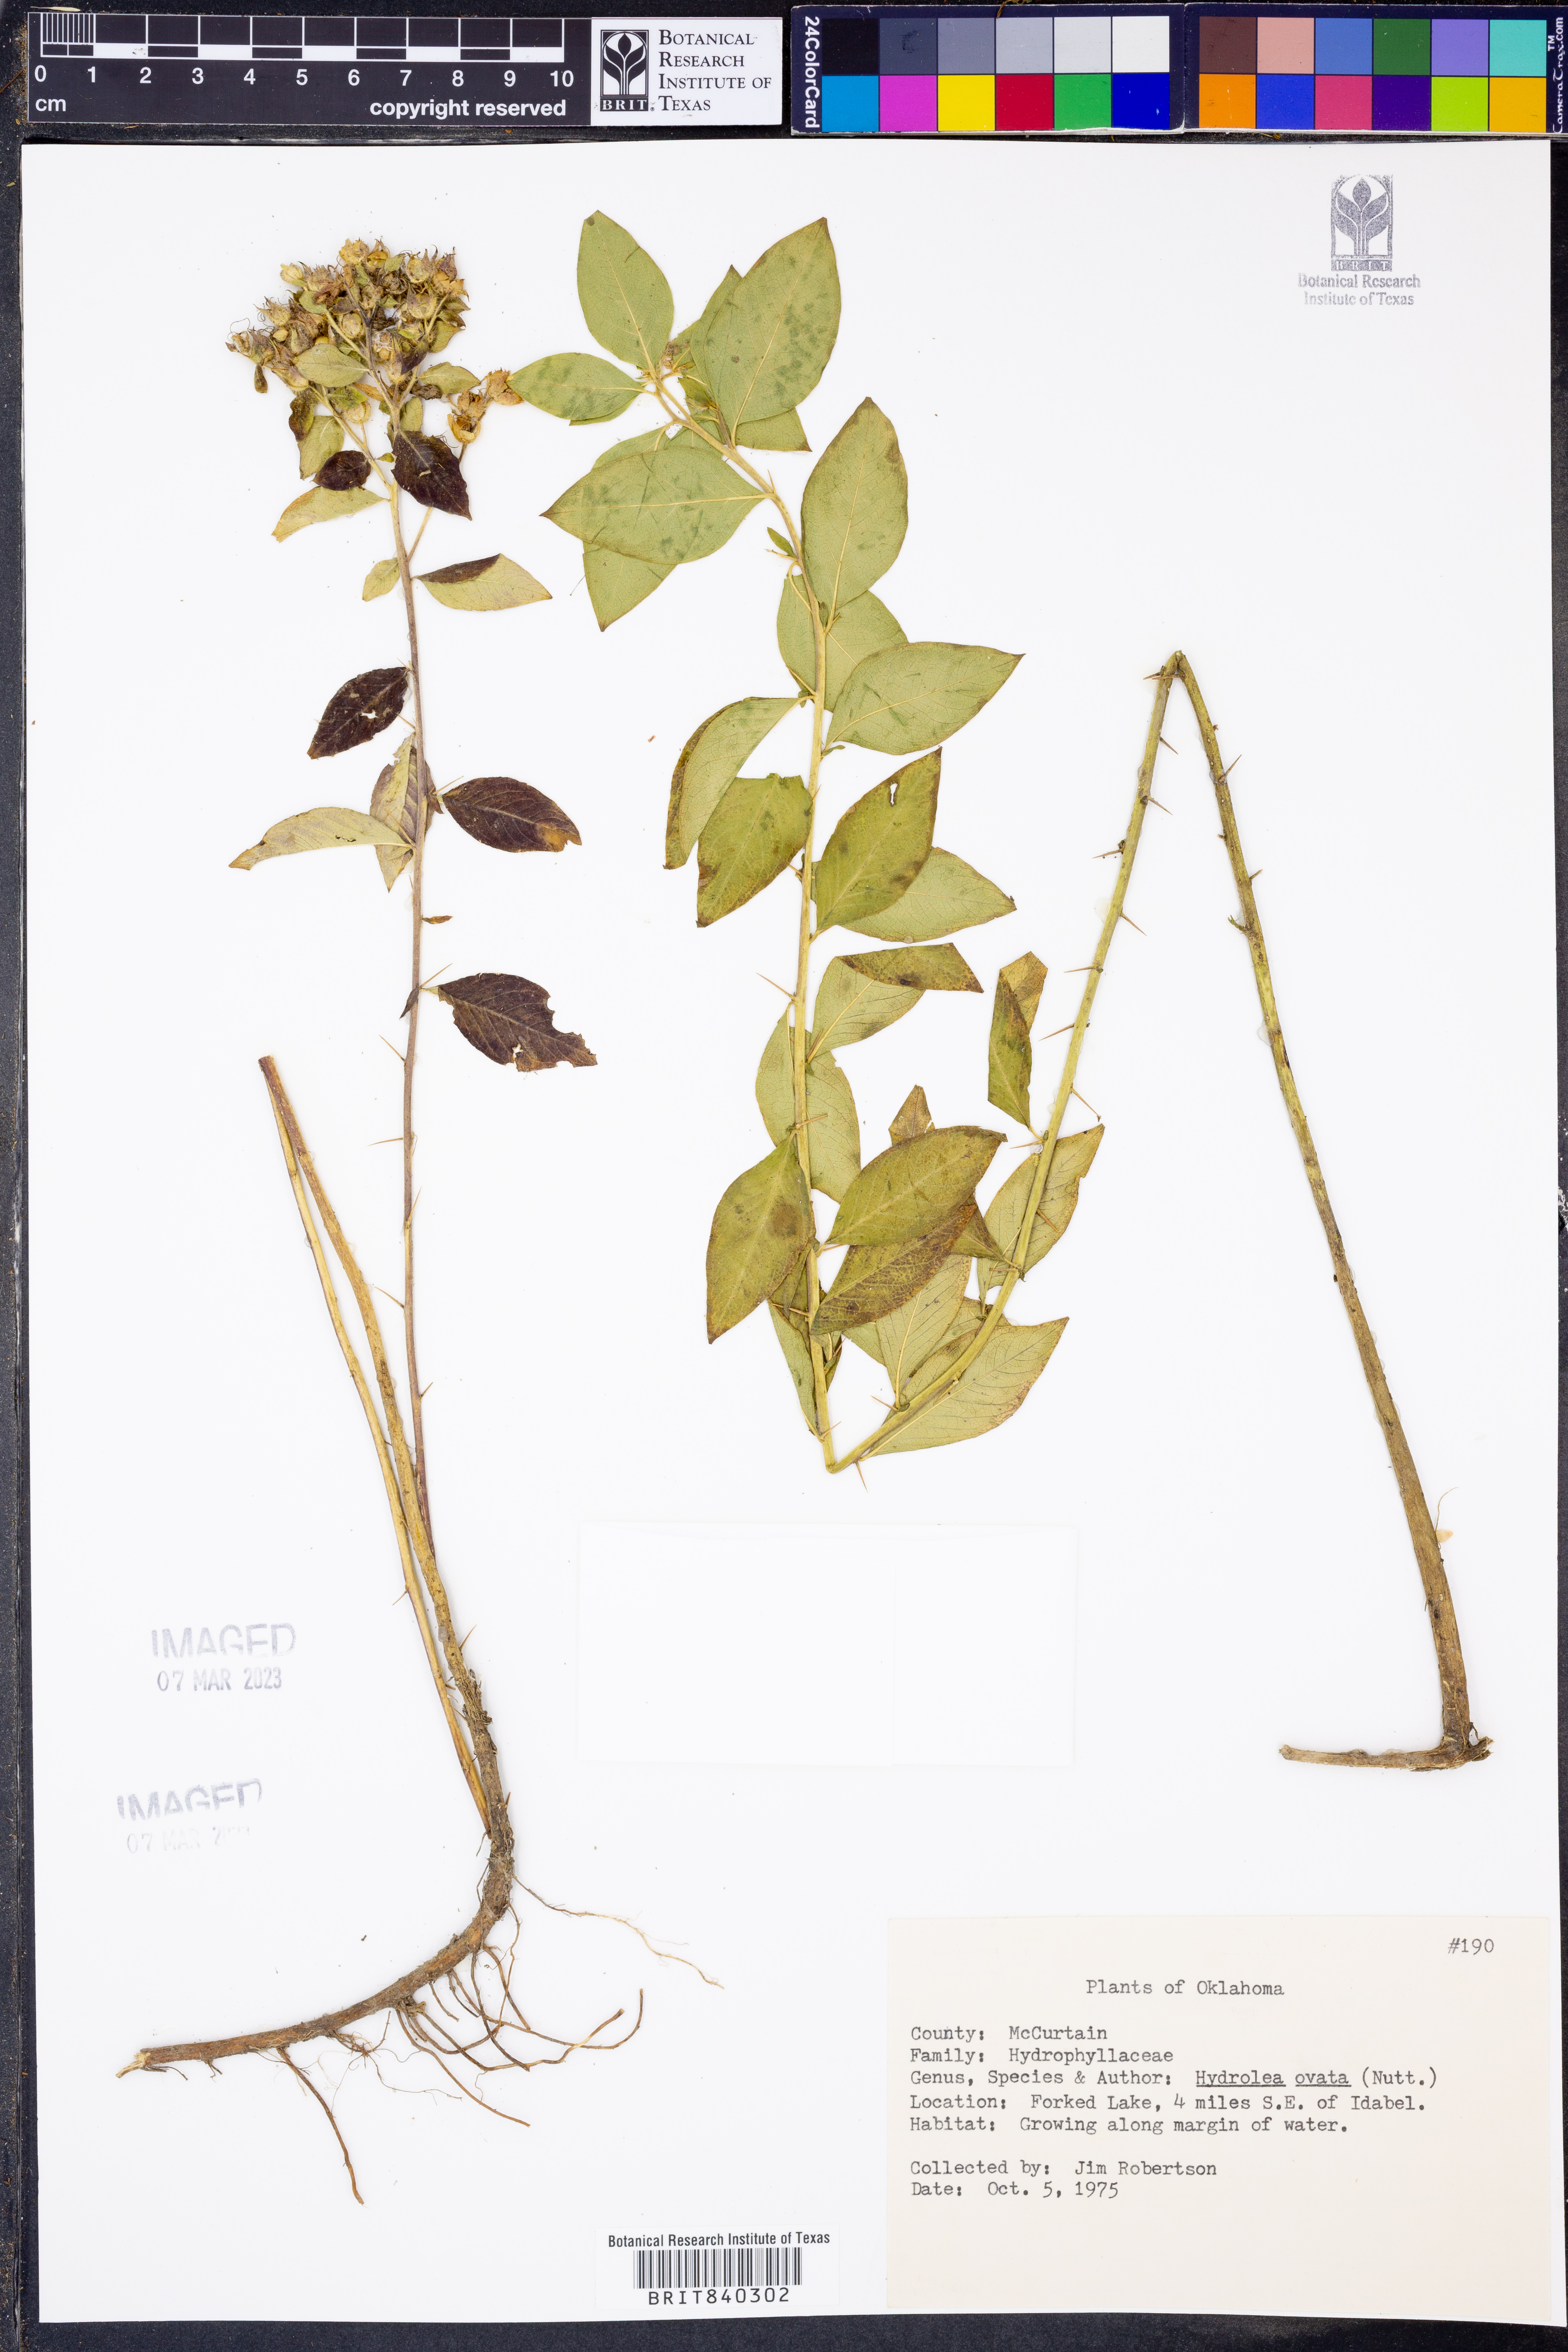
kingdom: Plantae
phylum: Tracheophyta
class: Magnoliopsida
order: Solanales
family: Hydroleaceae
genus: Hydrolea
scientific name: Hydrolea ovata
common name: Ovate false fiddleleaf
